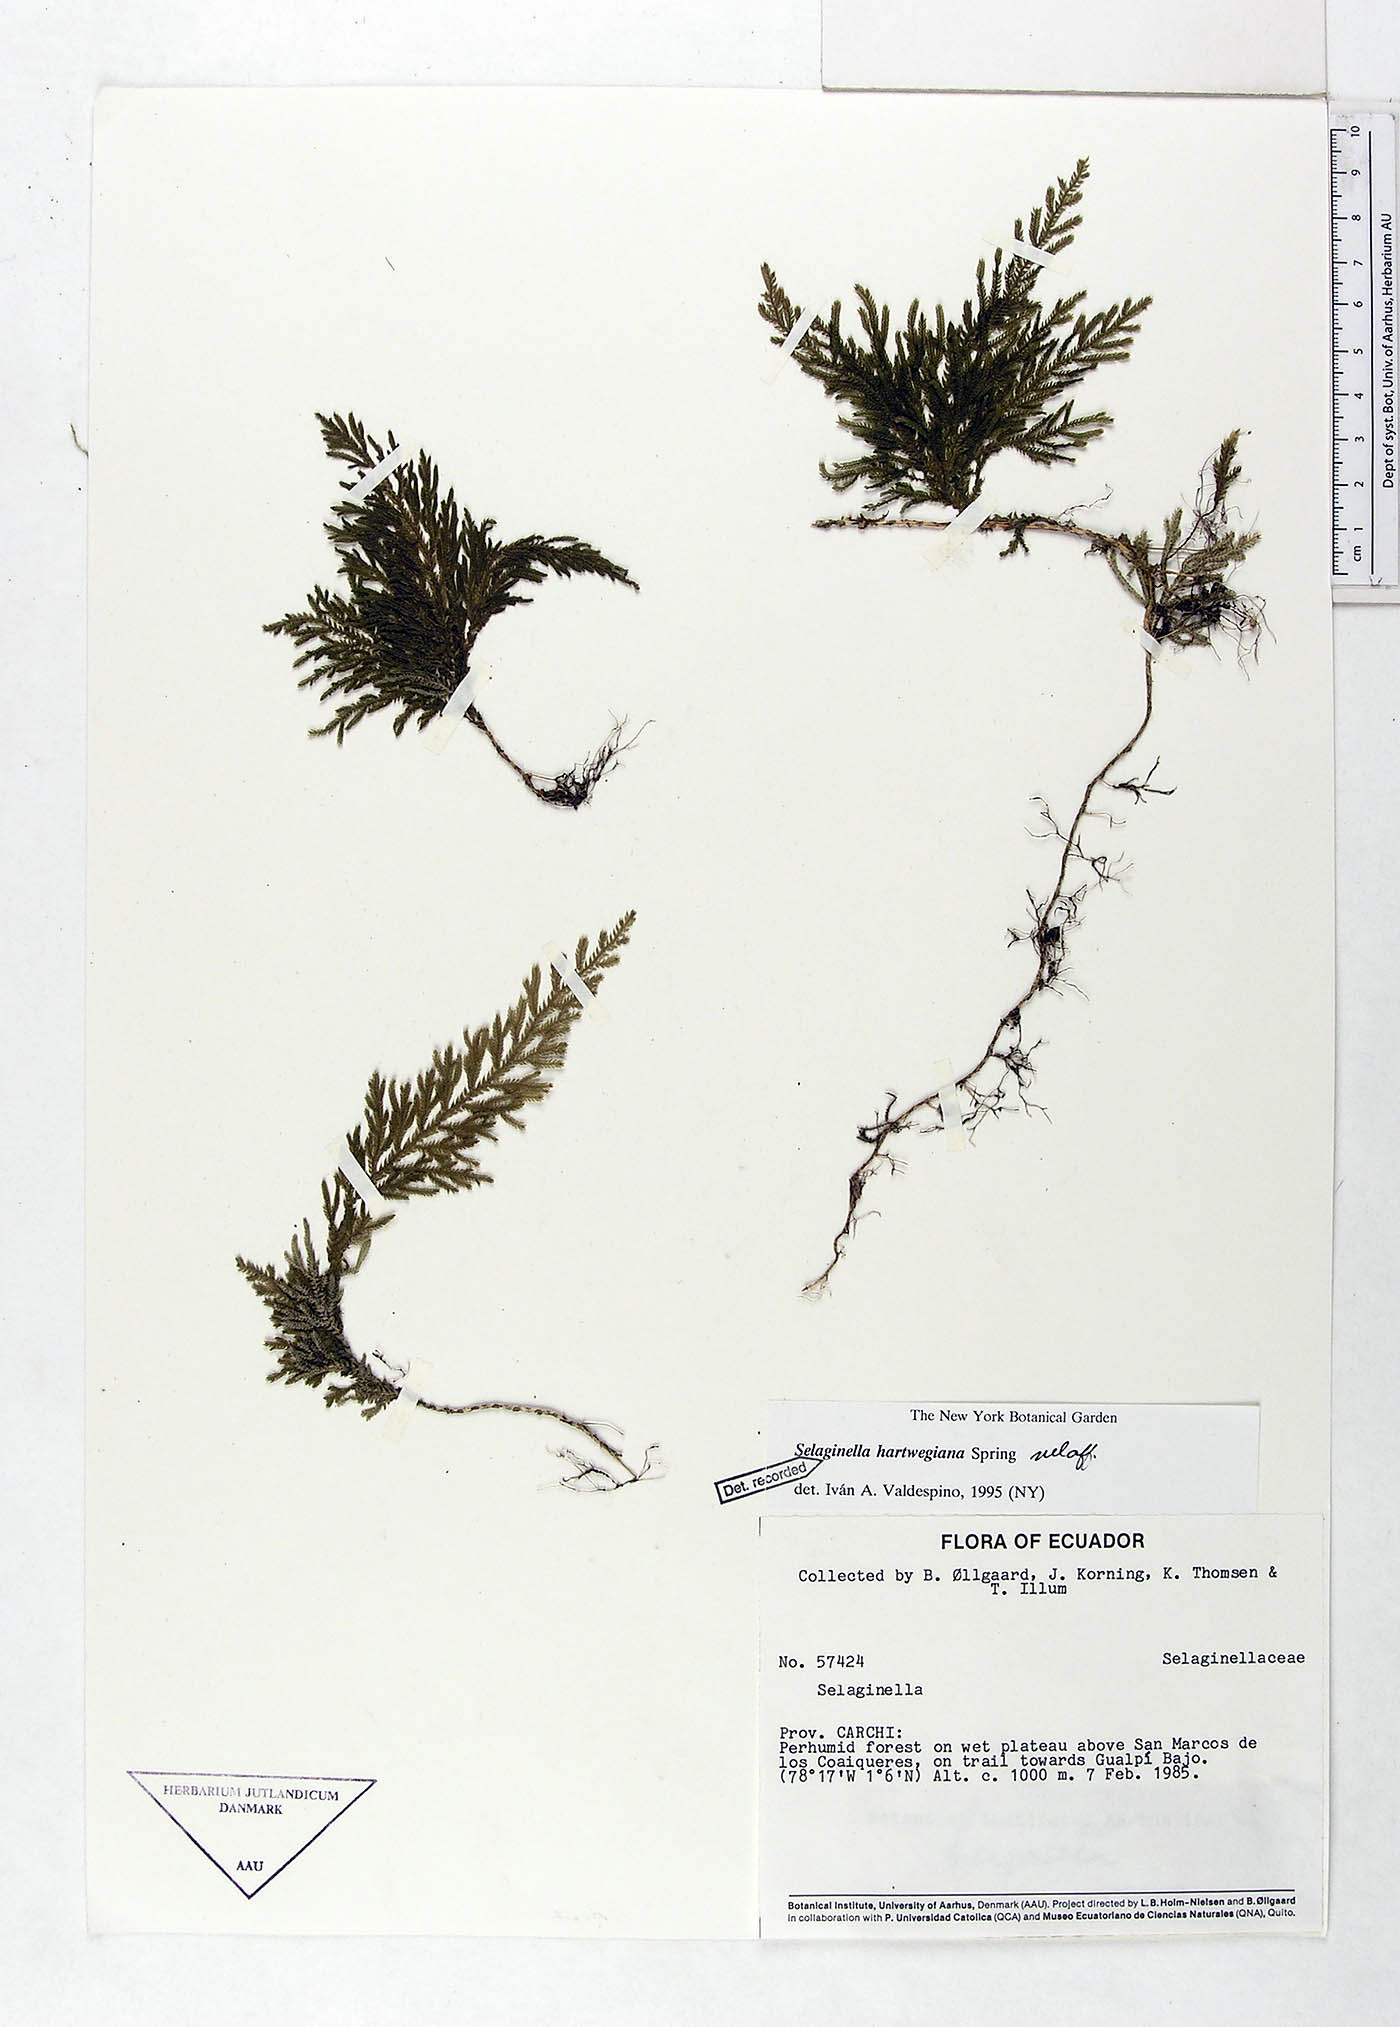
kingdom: Plantae
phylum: Tracheophyta
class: Lycopodiopsida
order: Selaginellales
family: Selaginellaceae
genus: Selaginella
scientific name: Selaginella hartwegiana
